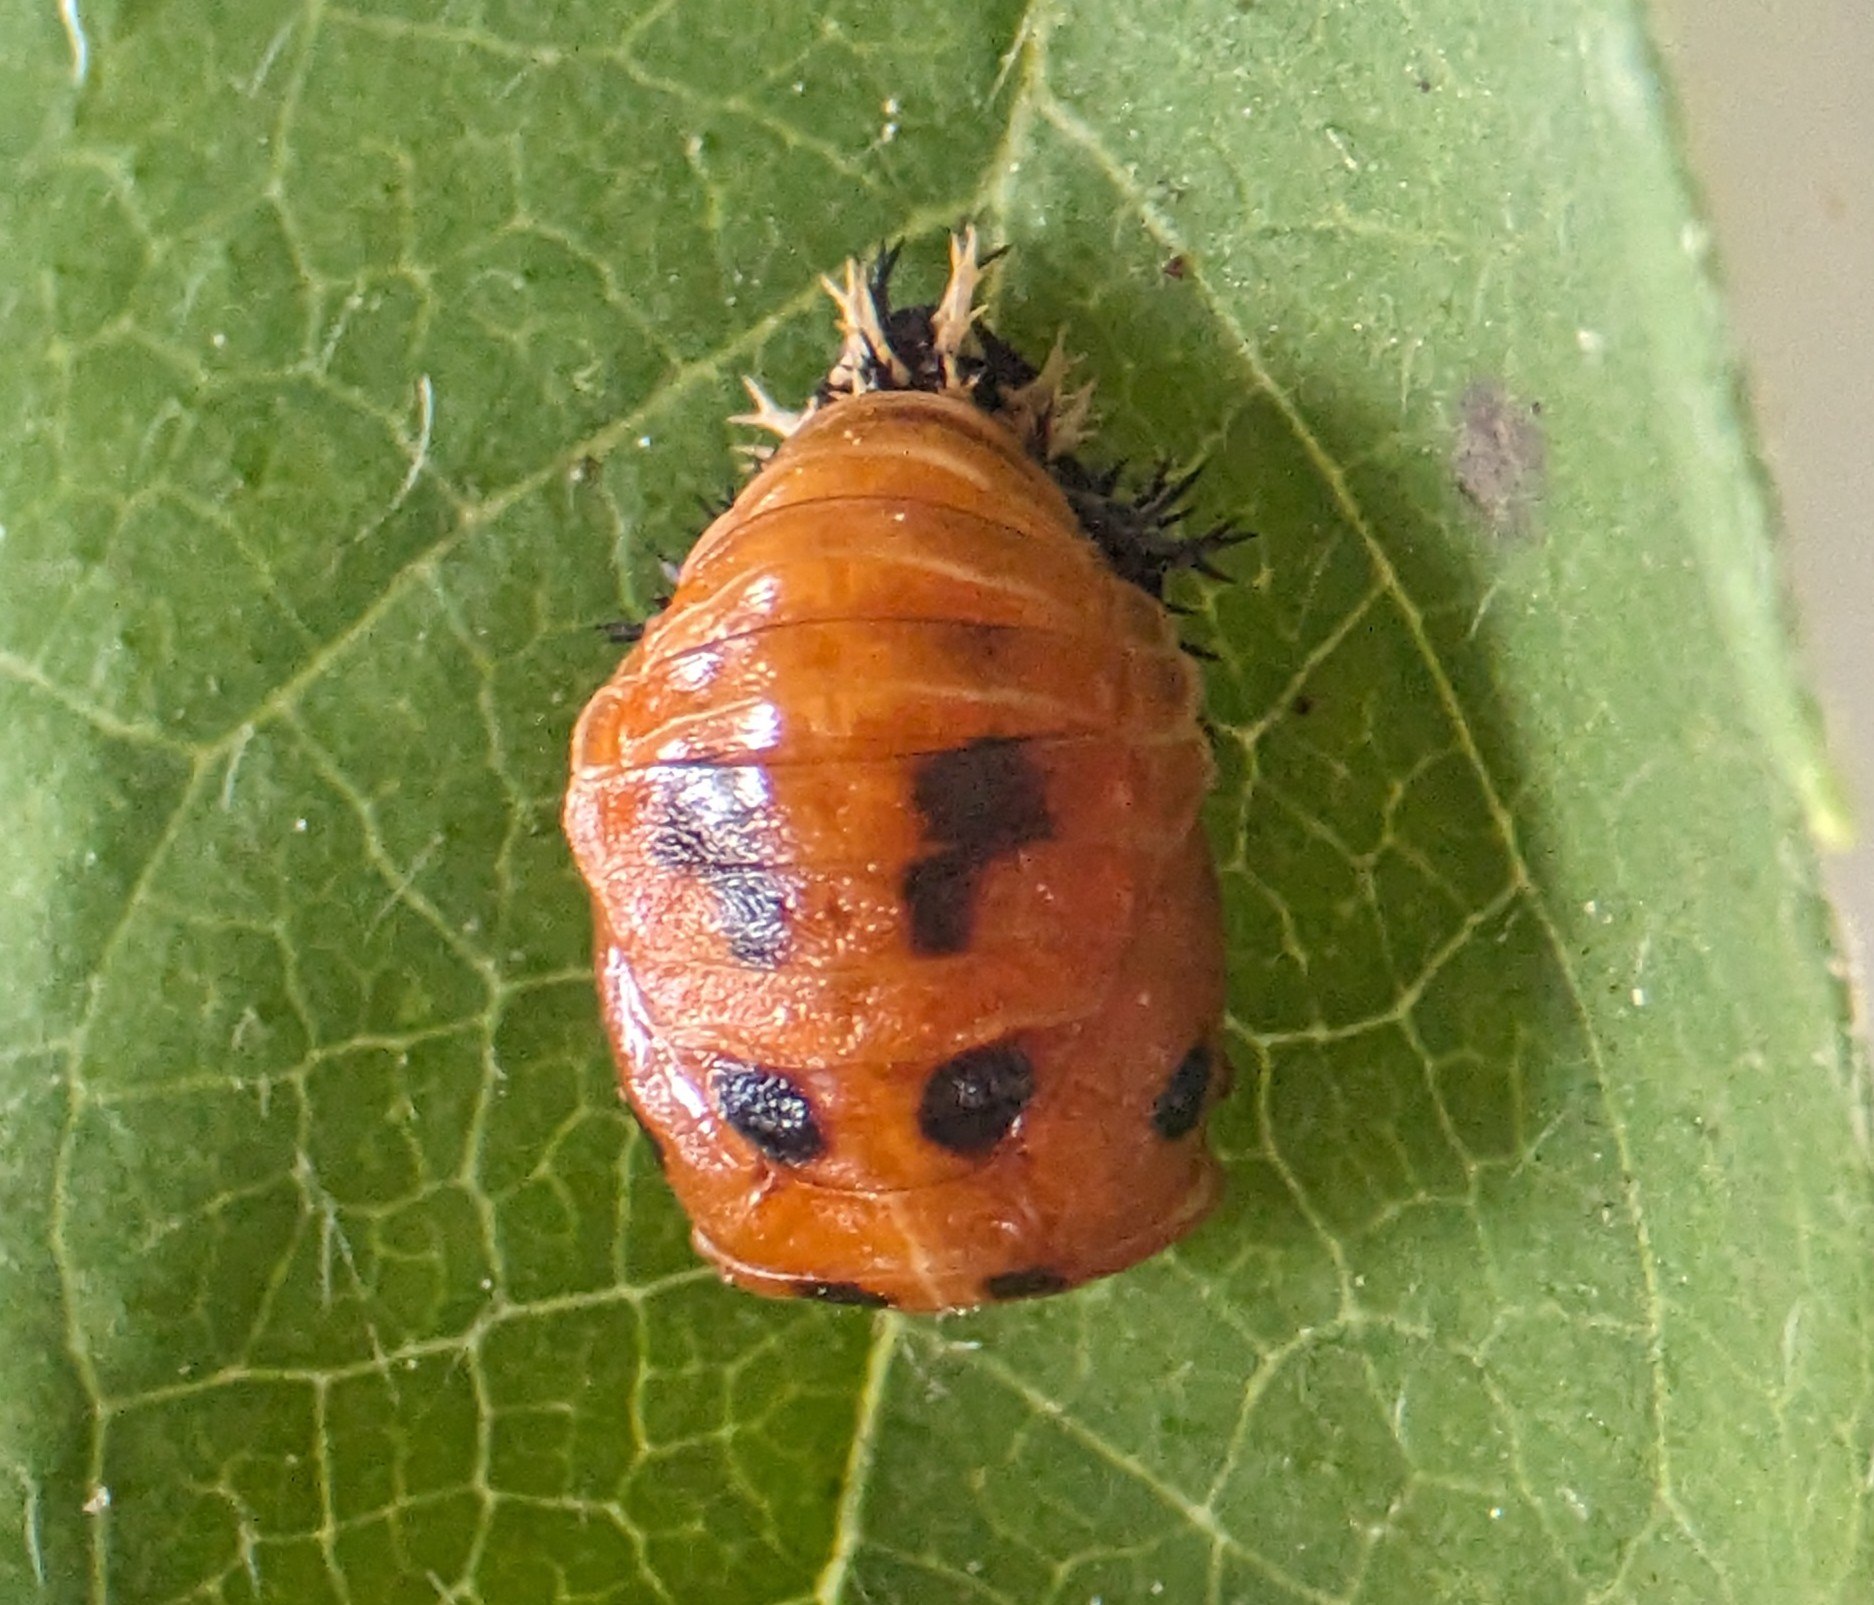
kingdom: Animalia
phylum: Arthropoda
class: Insecta
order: Coleoptera
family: Coccinellidae
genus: Harmonia
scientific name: Harmonia axyridis
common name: Harlekinmariehøne
